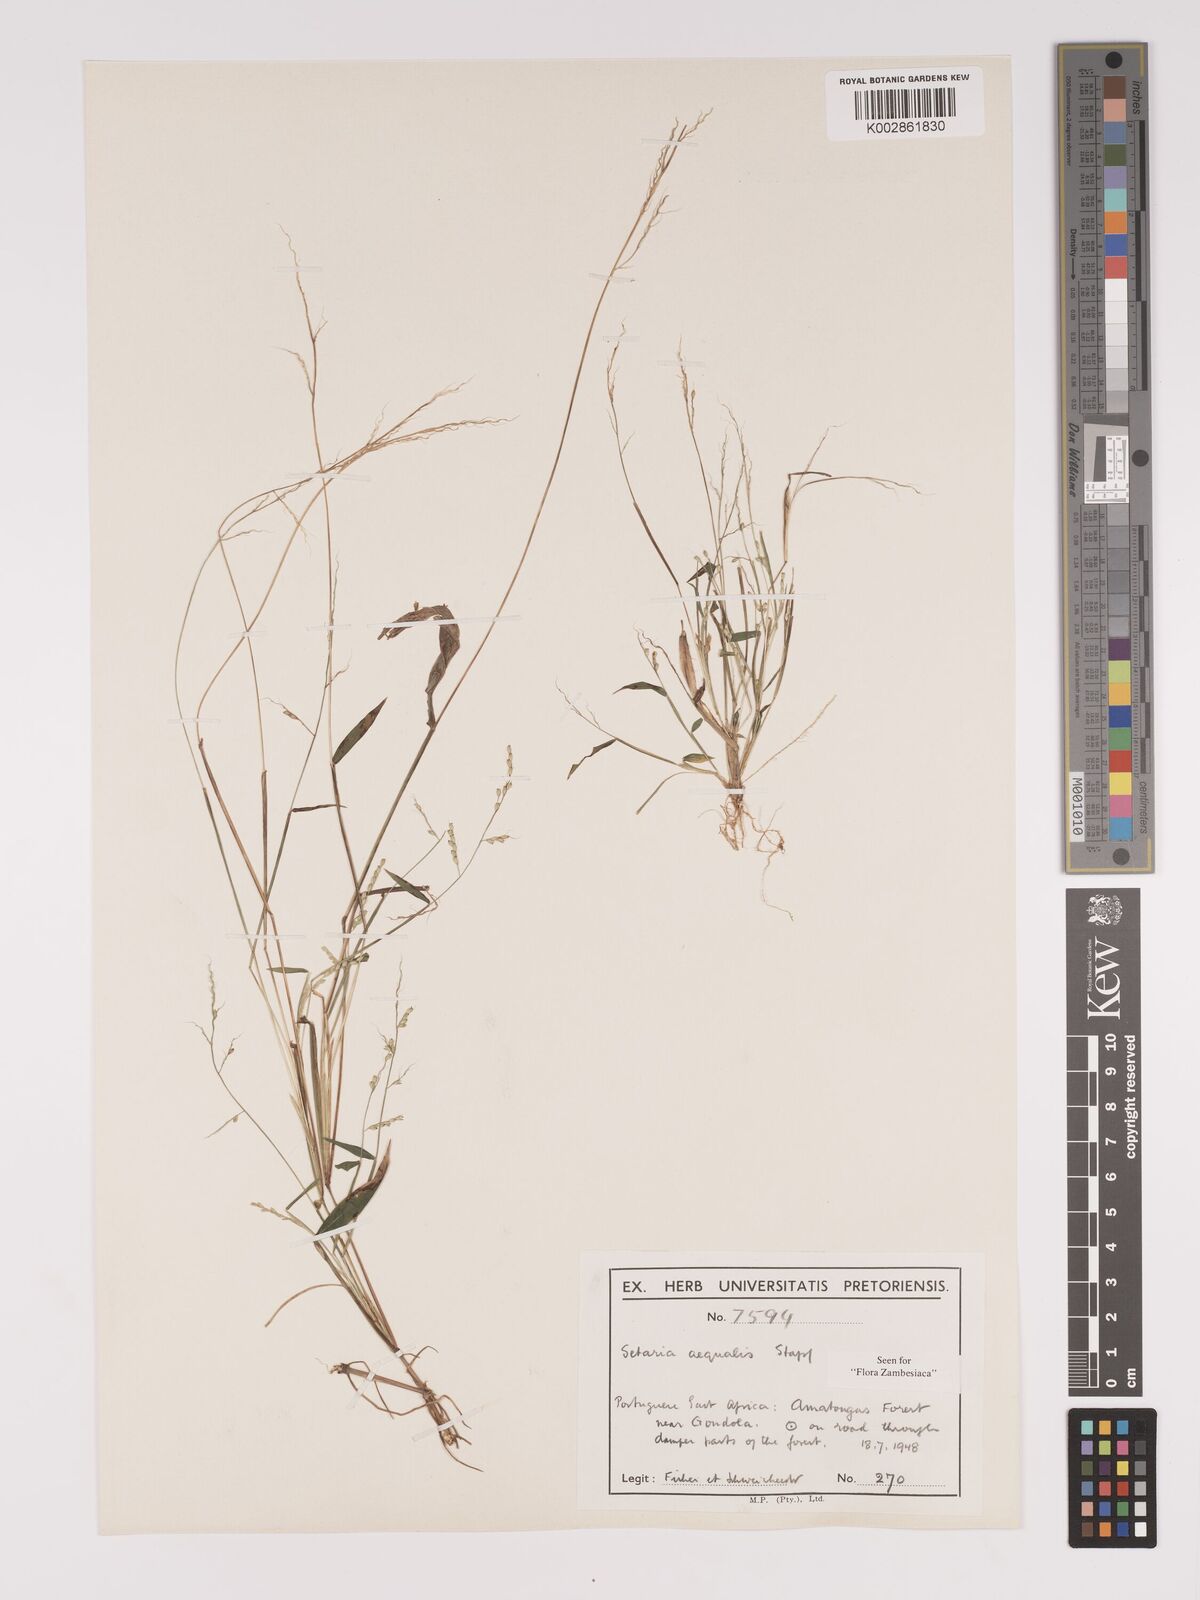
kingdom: Plantae
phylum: Tracheophyta
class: Liliopsida
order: Poales
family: Poaceae
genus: Setaria
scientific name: Setaria homonyma
